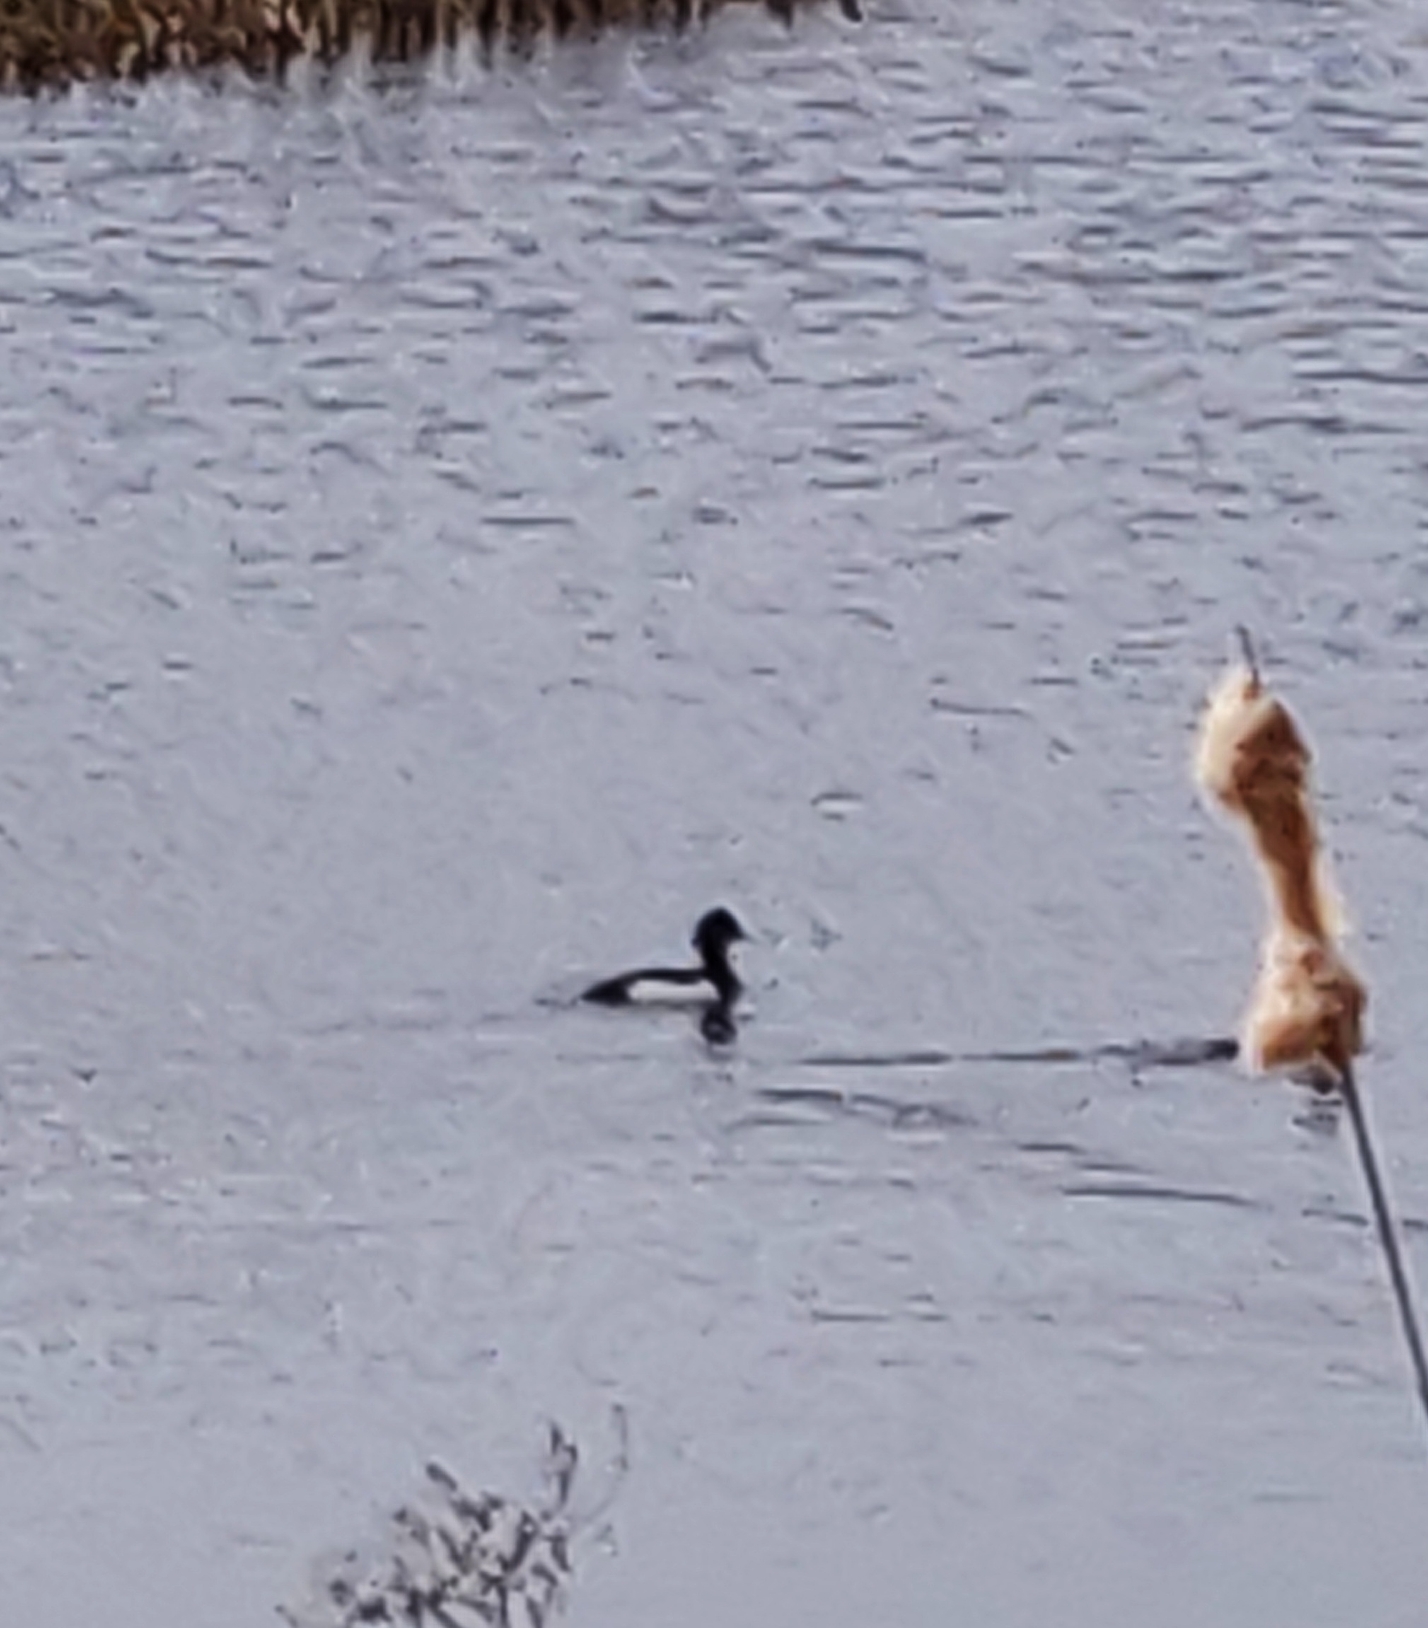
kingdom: Animalia
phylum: Chordata
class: Aves
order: Anseriformes
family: Anatidae
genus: Aythya
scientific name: Aythya fuligula
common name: Troldand
